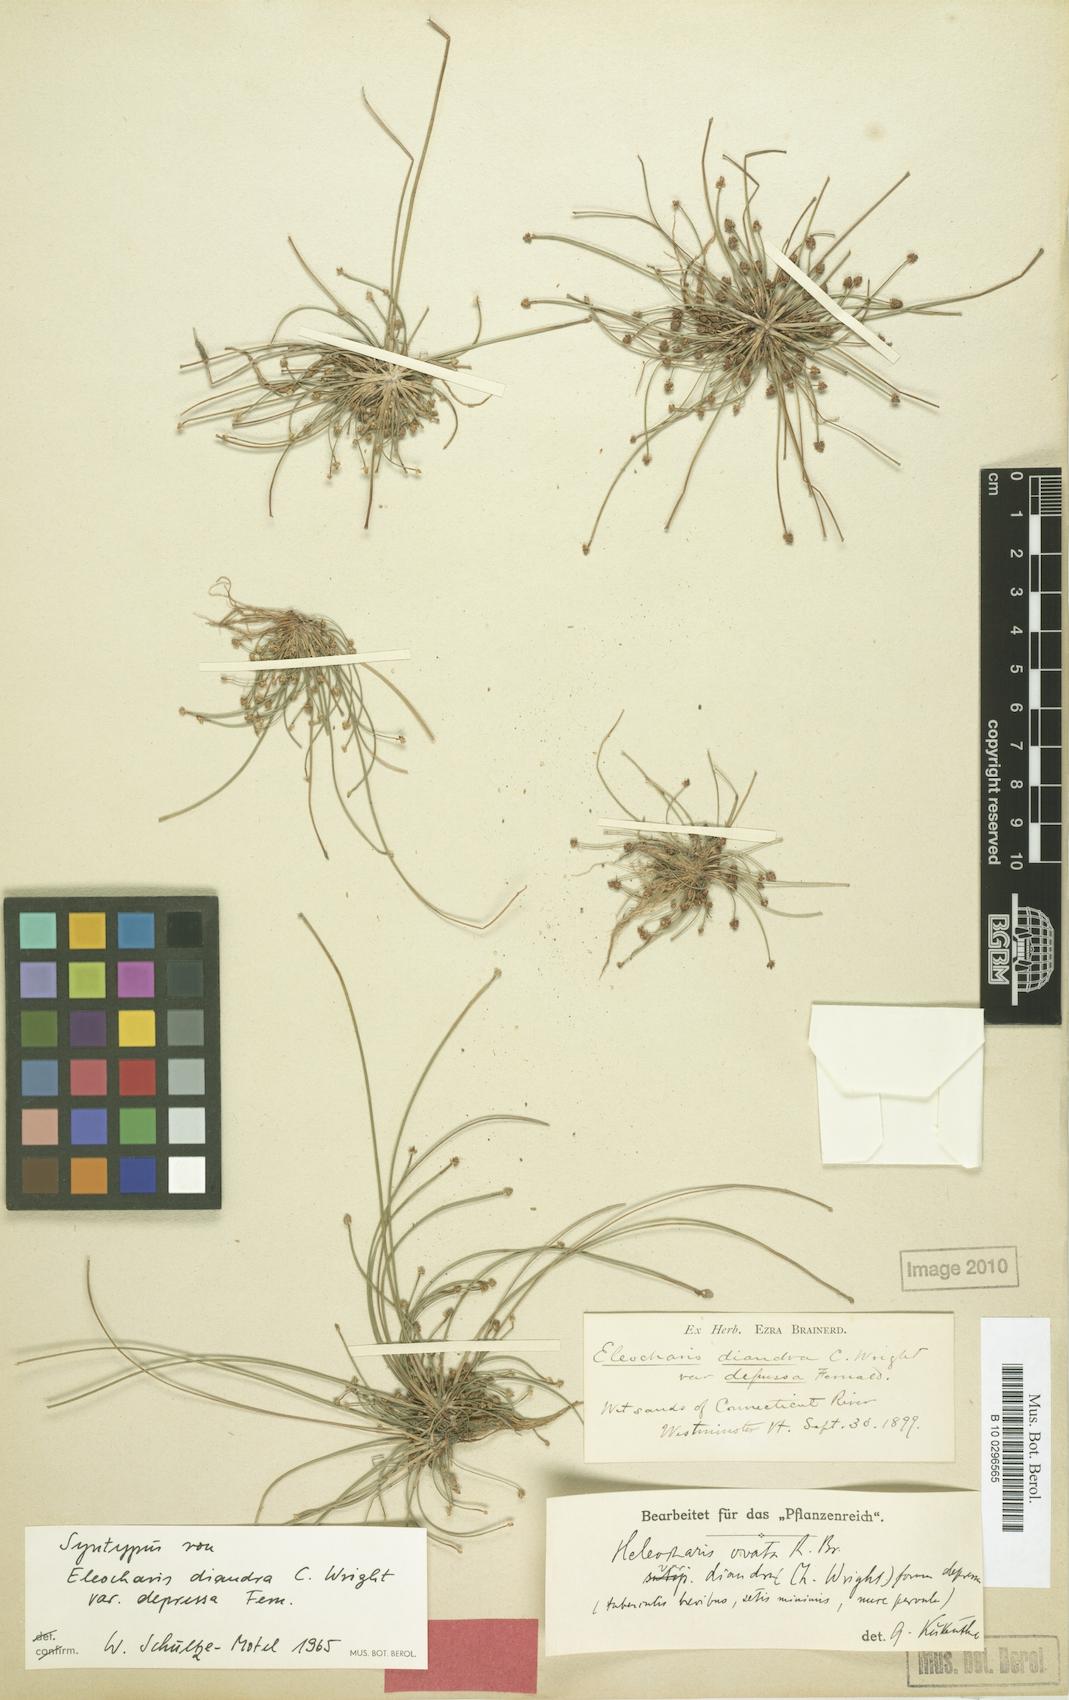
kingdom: Plantae
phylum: Tracheophyta
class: Liliopsida
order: Poales
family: Cyperaceae
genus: Eleocharis
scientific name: Eleocharis obtusa
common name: Blunt spikerush
